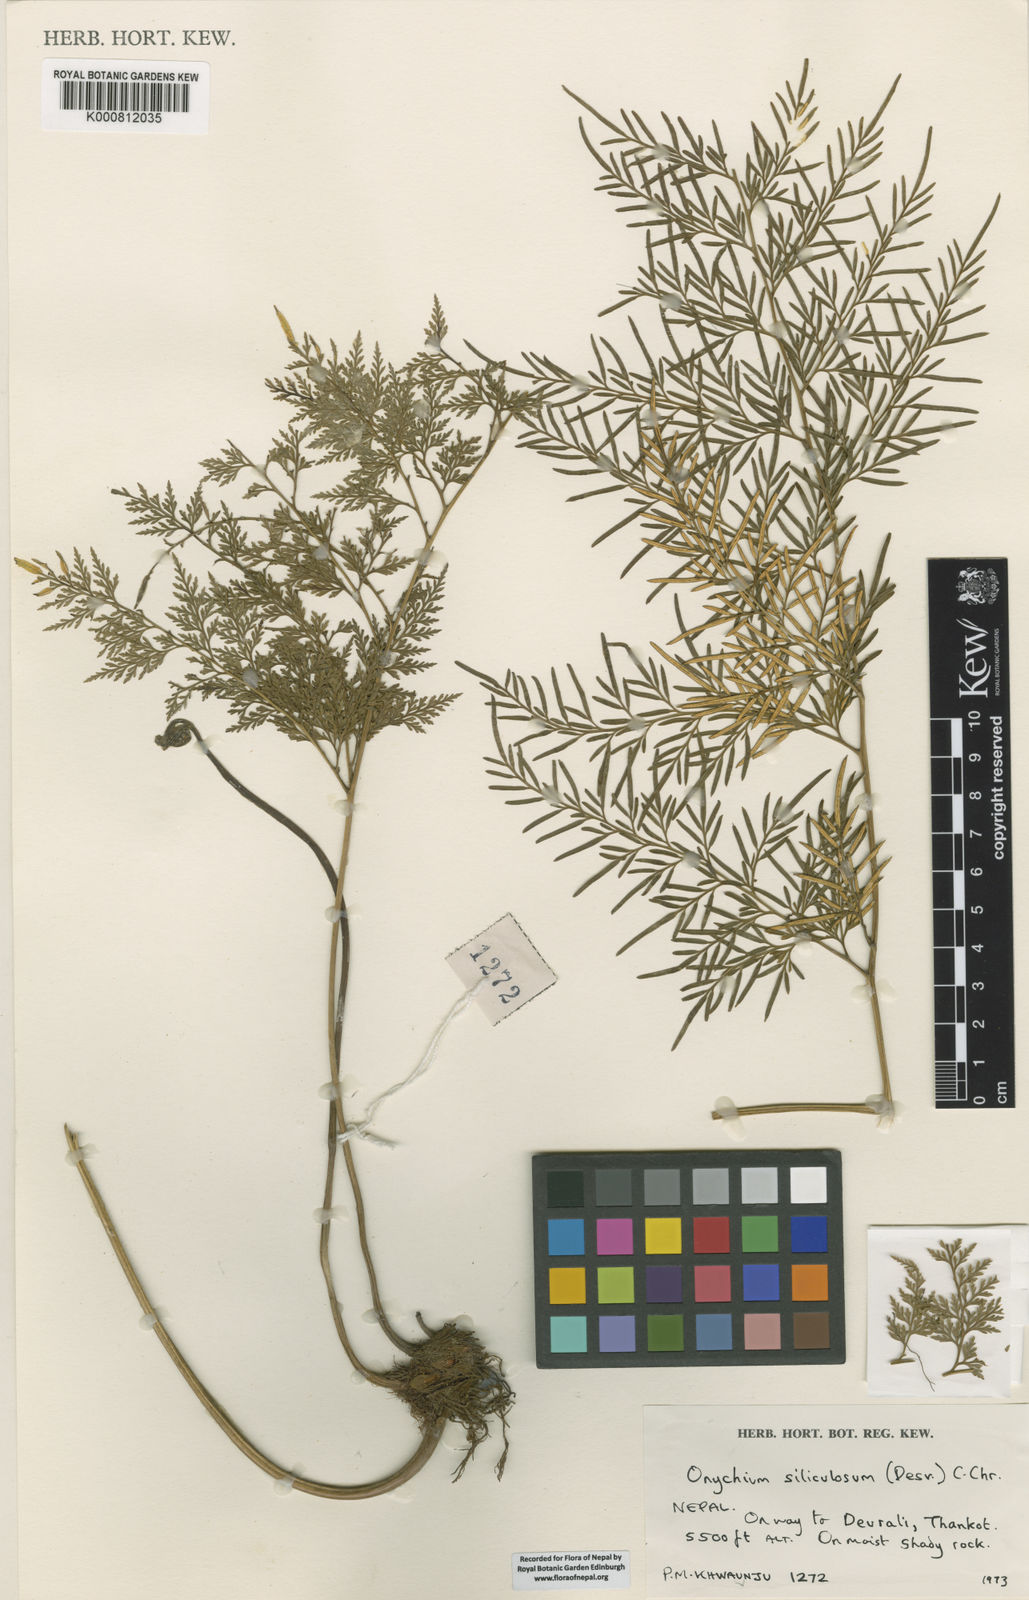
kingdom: Plantae
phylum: Tracheophyta
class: Polypodiopsida
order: Polypodiales
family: Pteridaceae
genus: Onychium
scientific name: Onychium siliculosum
